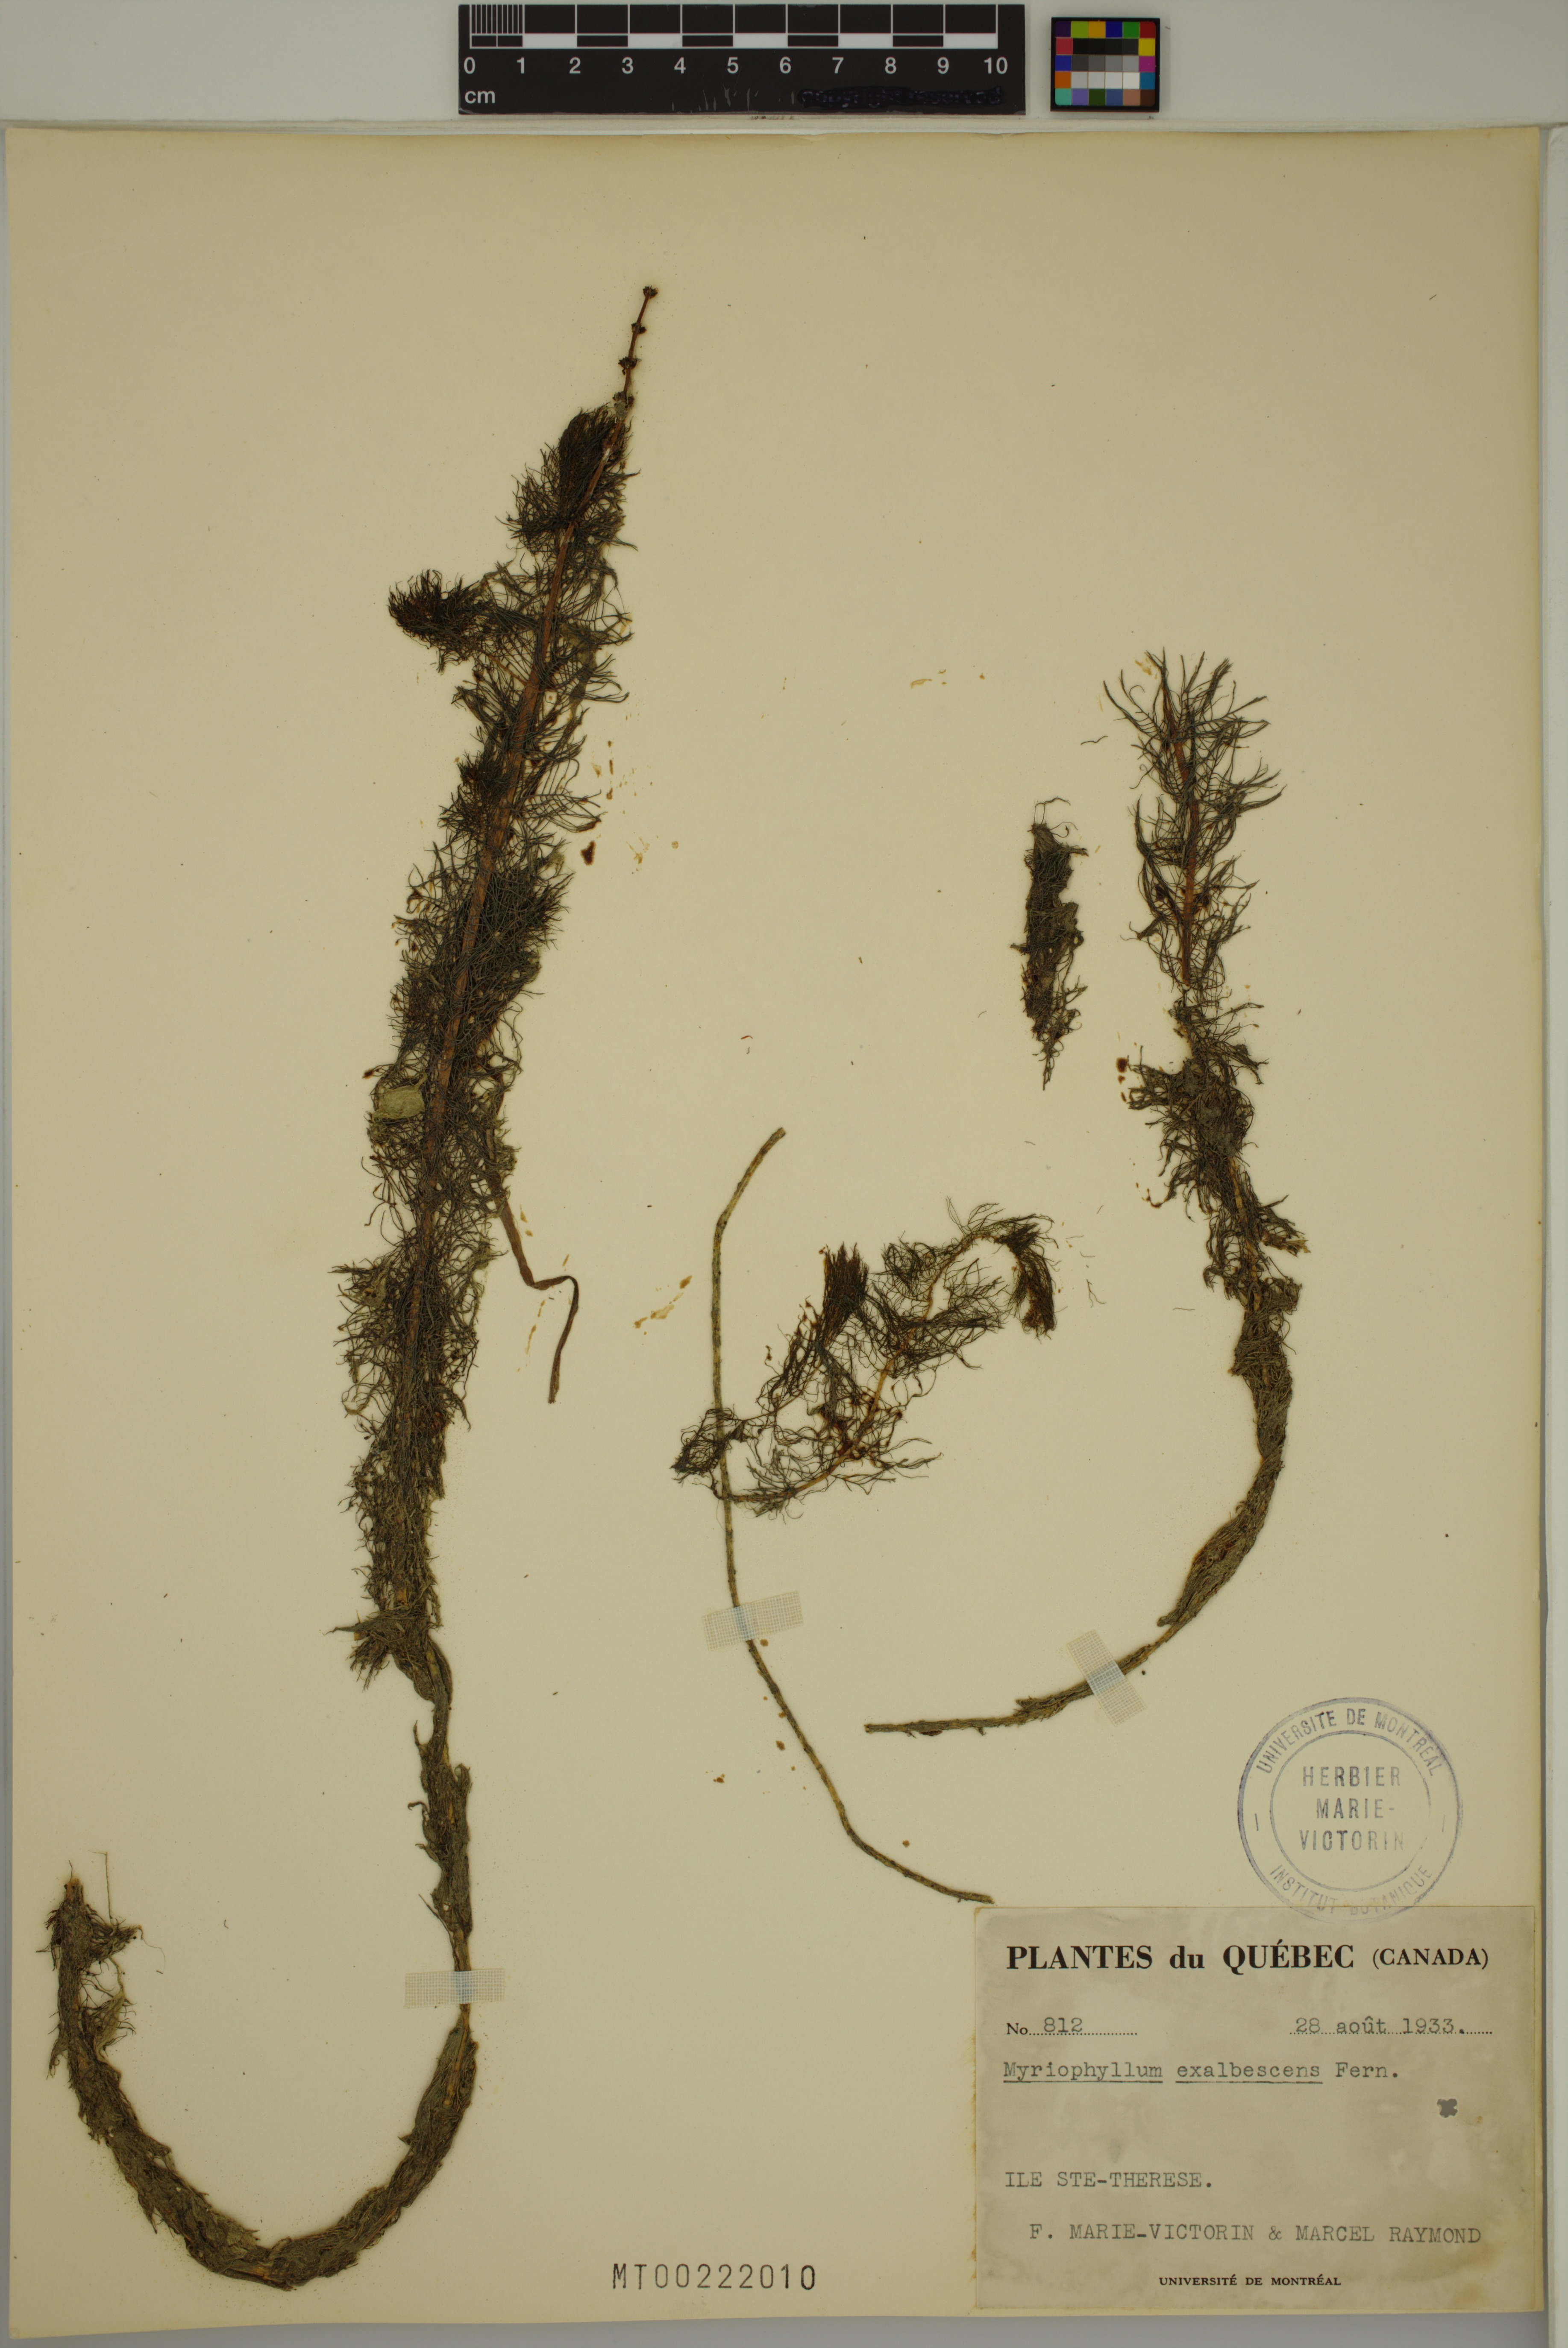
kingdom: Plantae
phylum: Tracheophyta
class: Magnoliopsida
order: Saxifragales
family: Haloragaceae
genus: Myriophyllum
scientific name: Myriophyllum sibiricum
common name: Siberian water-milfoil
